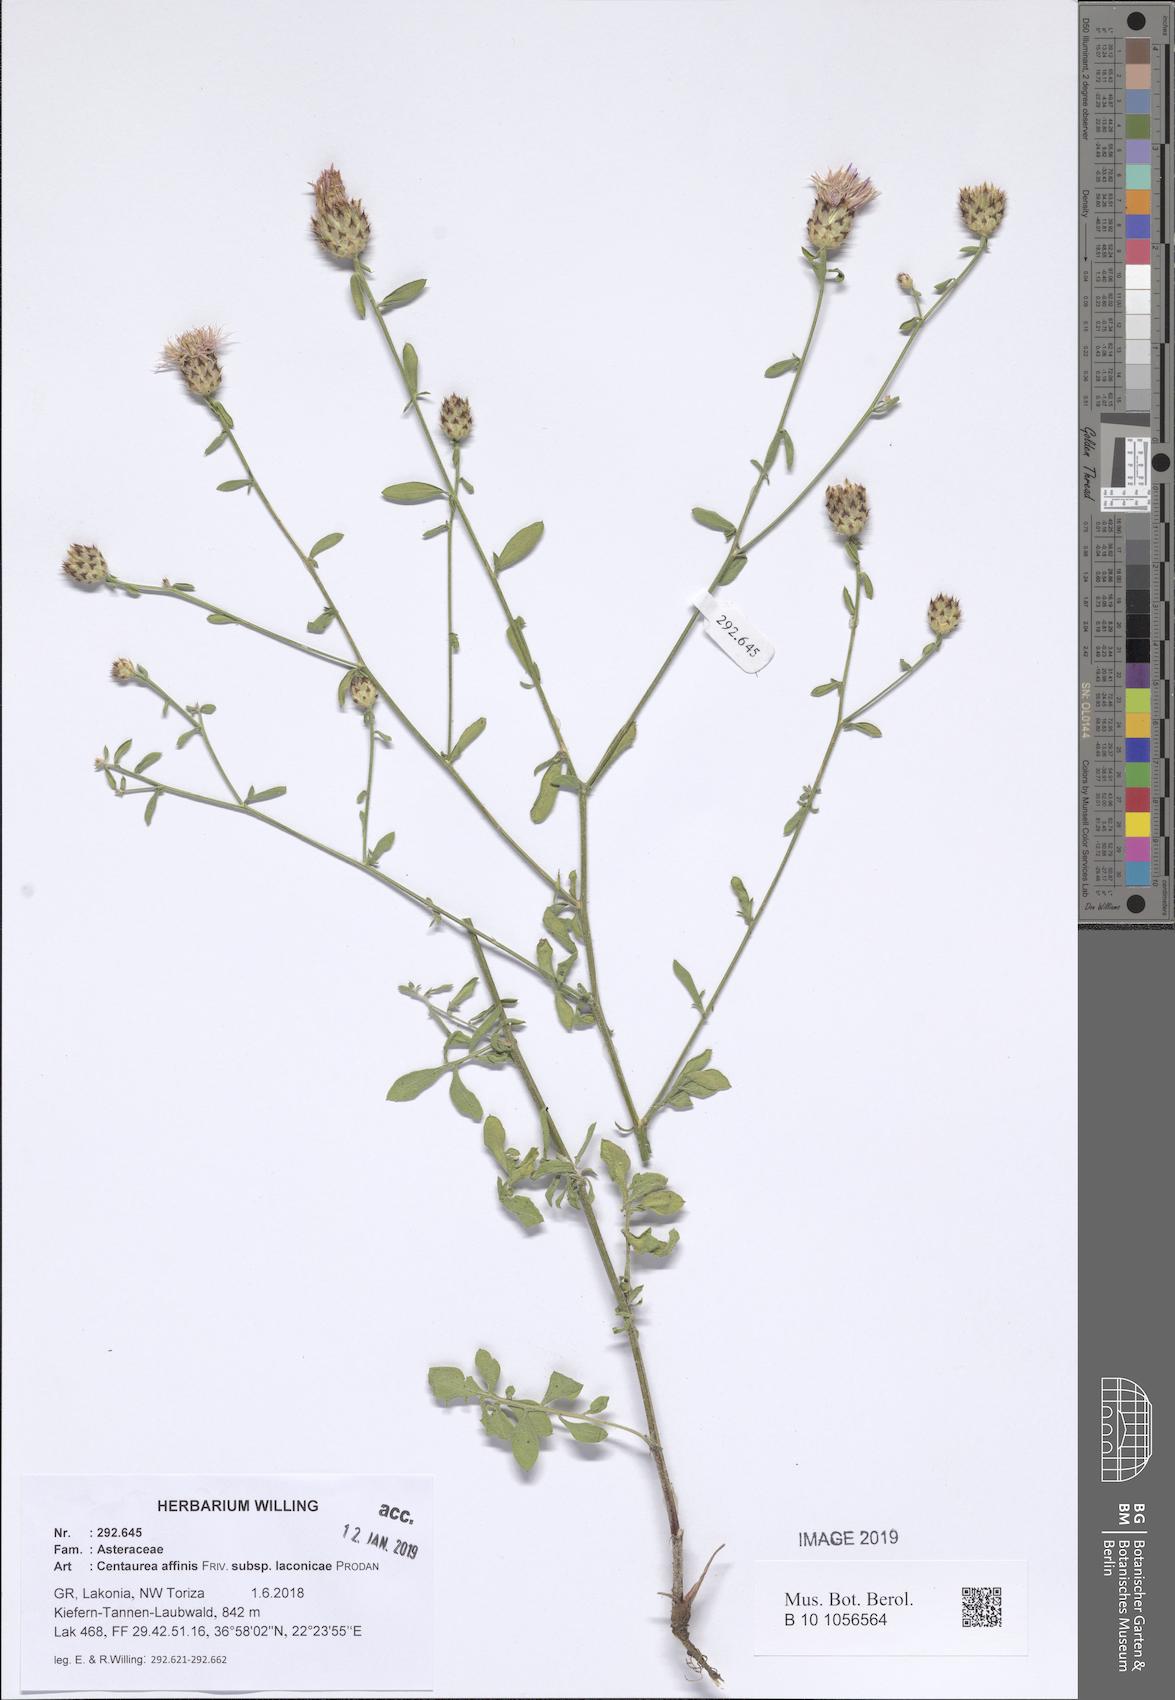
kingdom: Plantae
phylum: Tracheophyta
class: Magnoliopsida
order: Asterales
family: Asteraceae
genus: Centaurea
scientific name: Centaurea affinis
